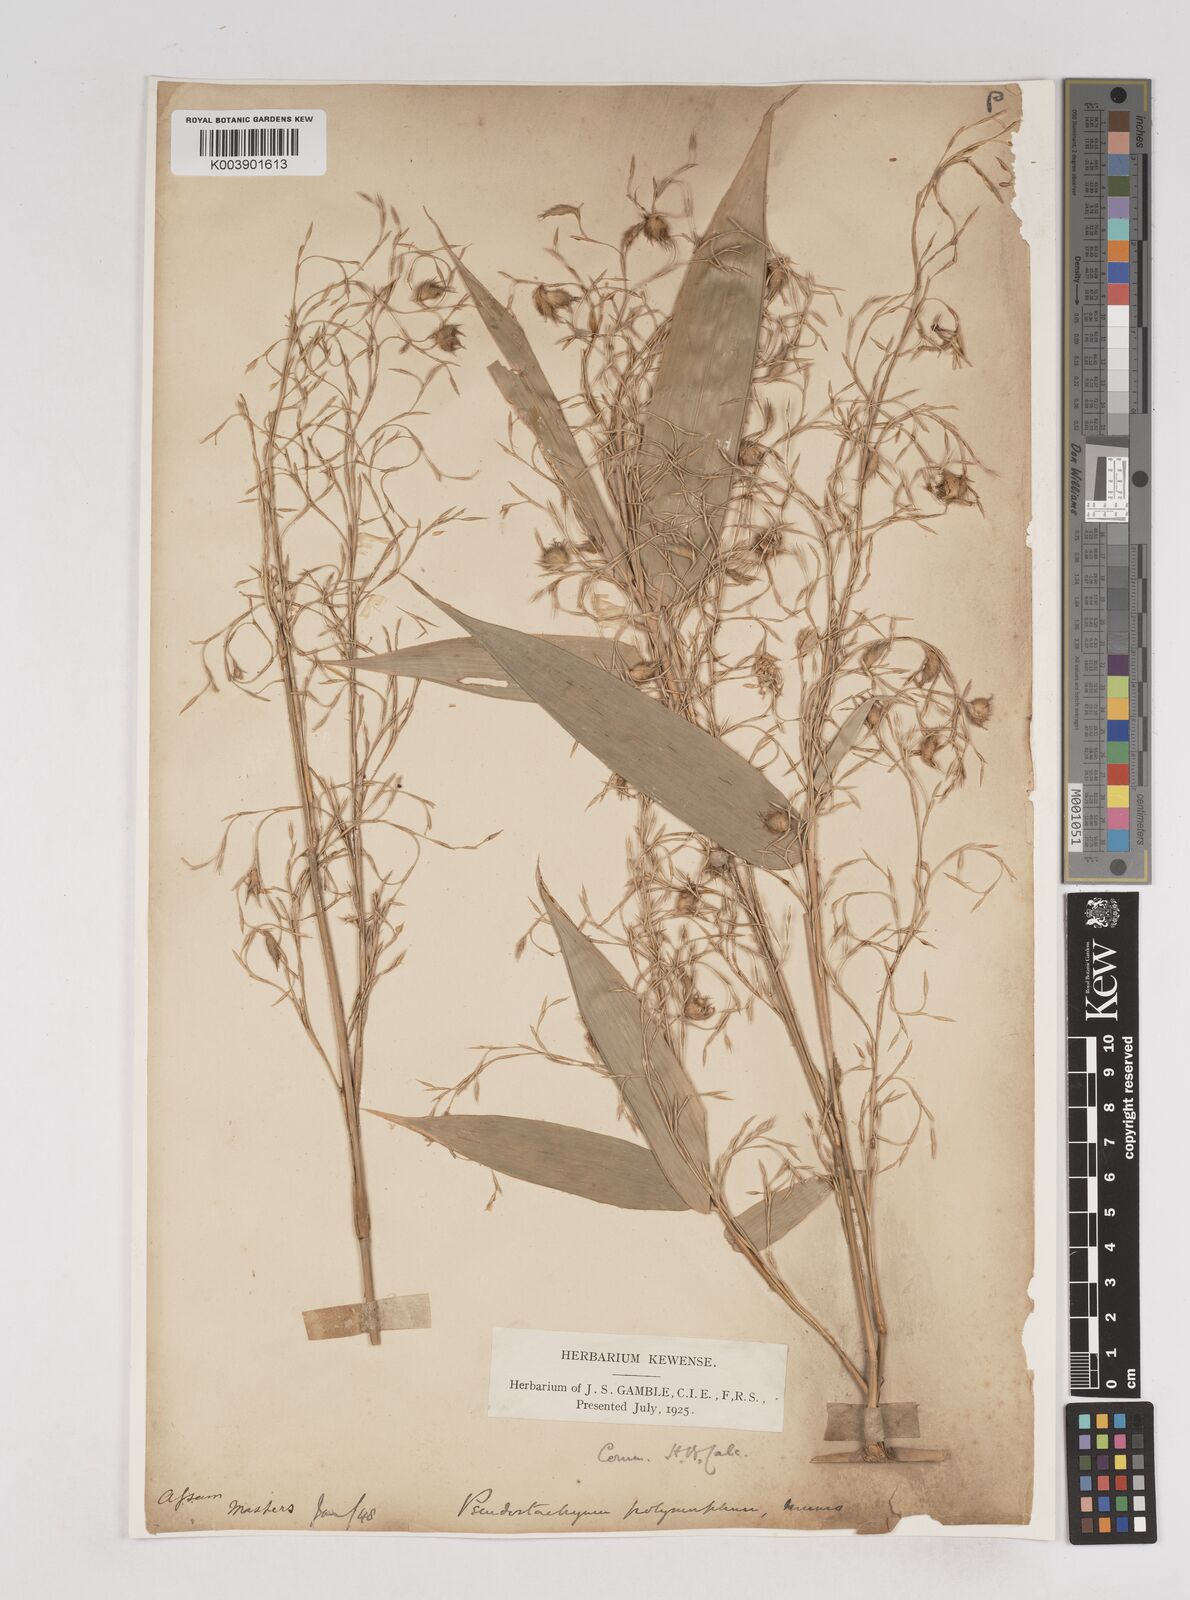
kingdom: Plantae
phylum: Tracheophyta
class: Liliopsida
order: Poales
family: Poaceae
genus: Pseudostachyum
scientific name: Pseudostachyum polymorphum
